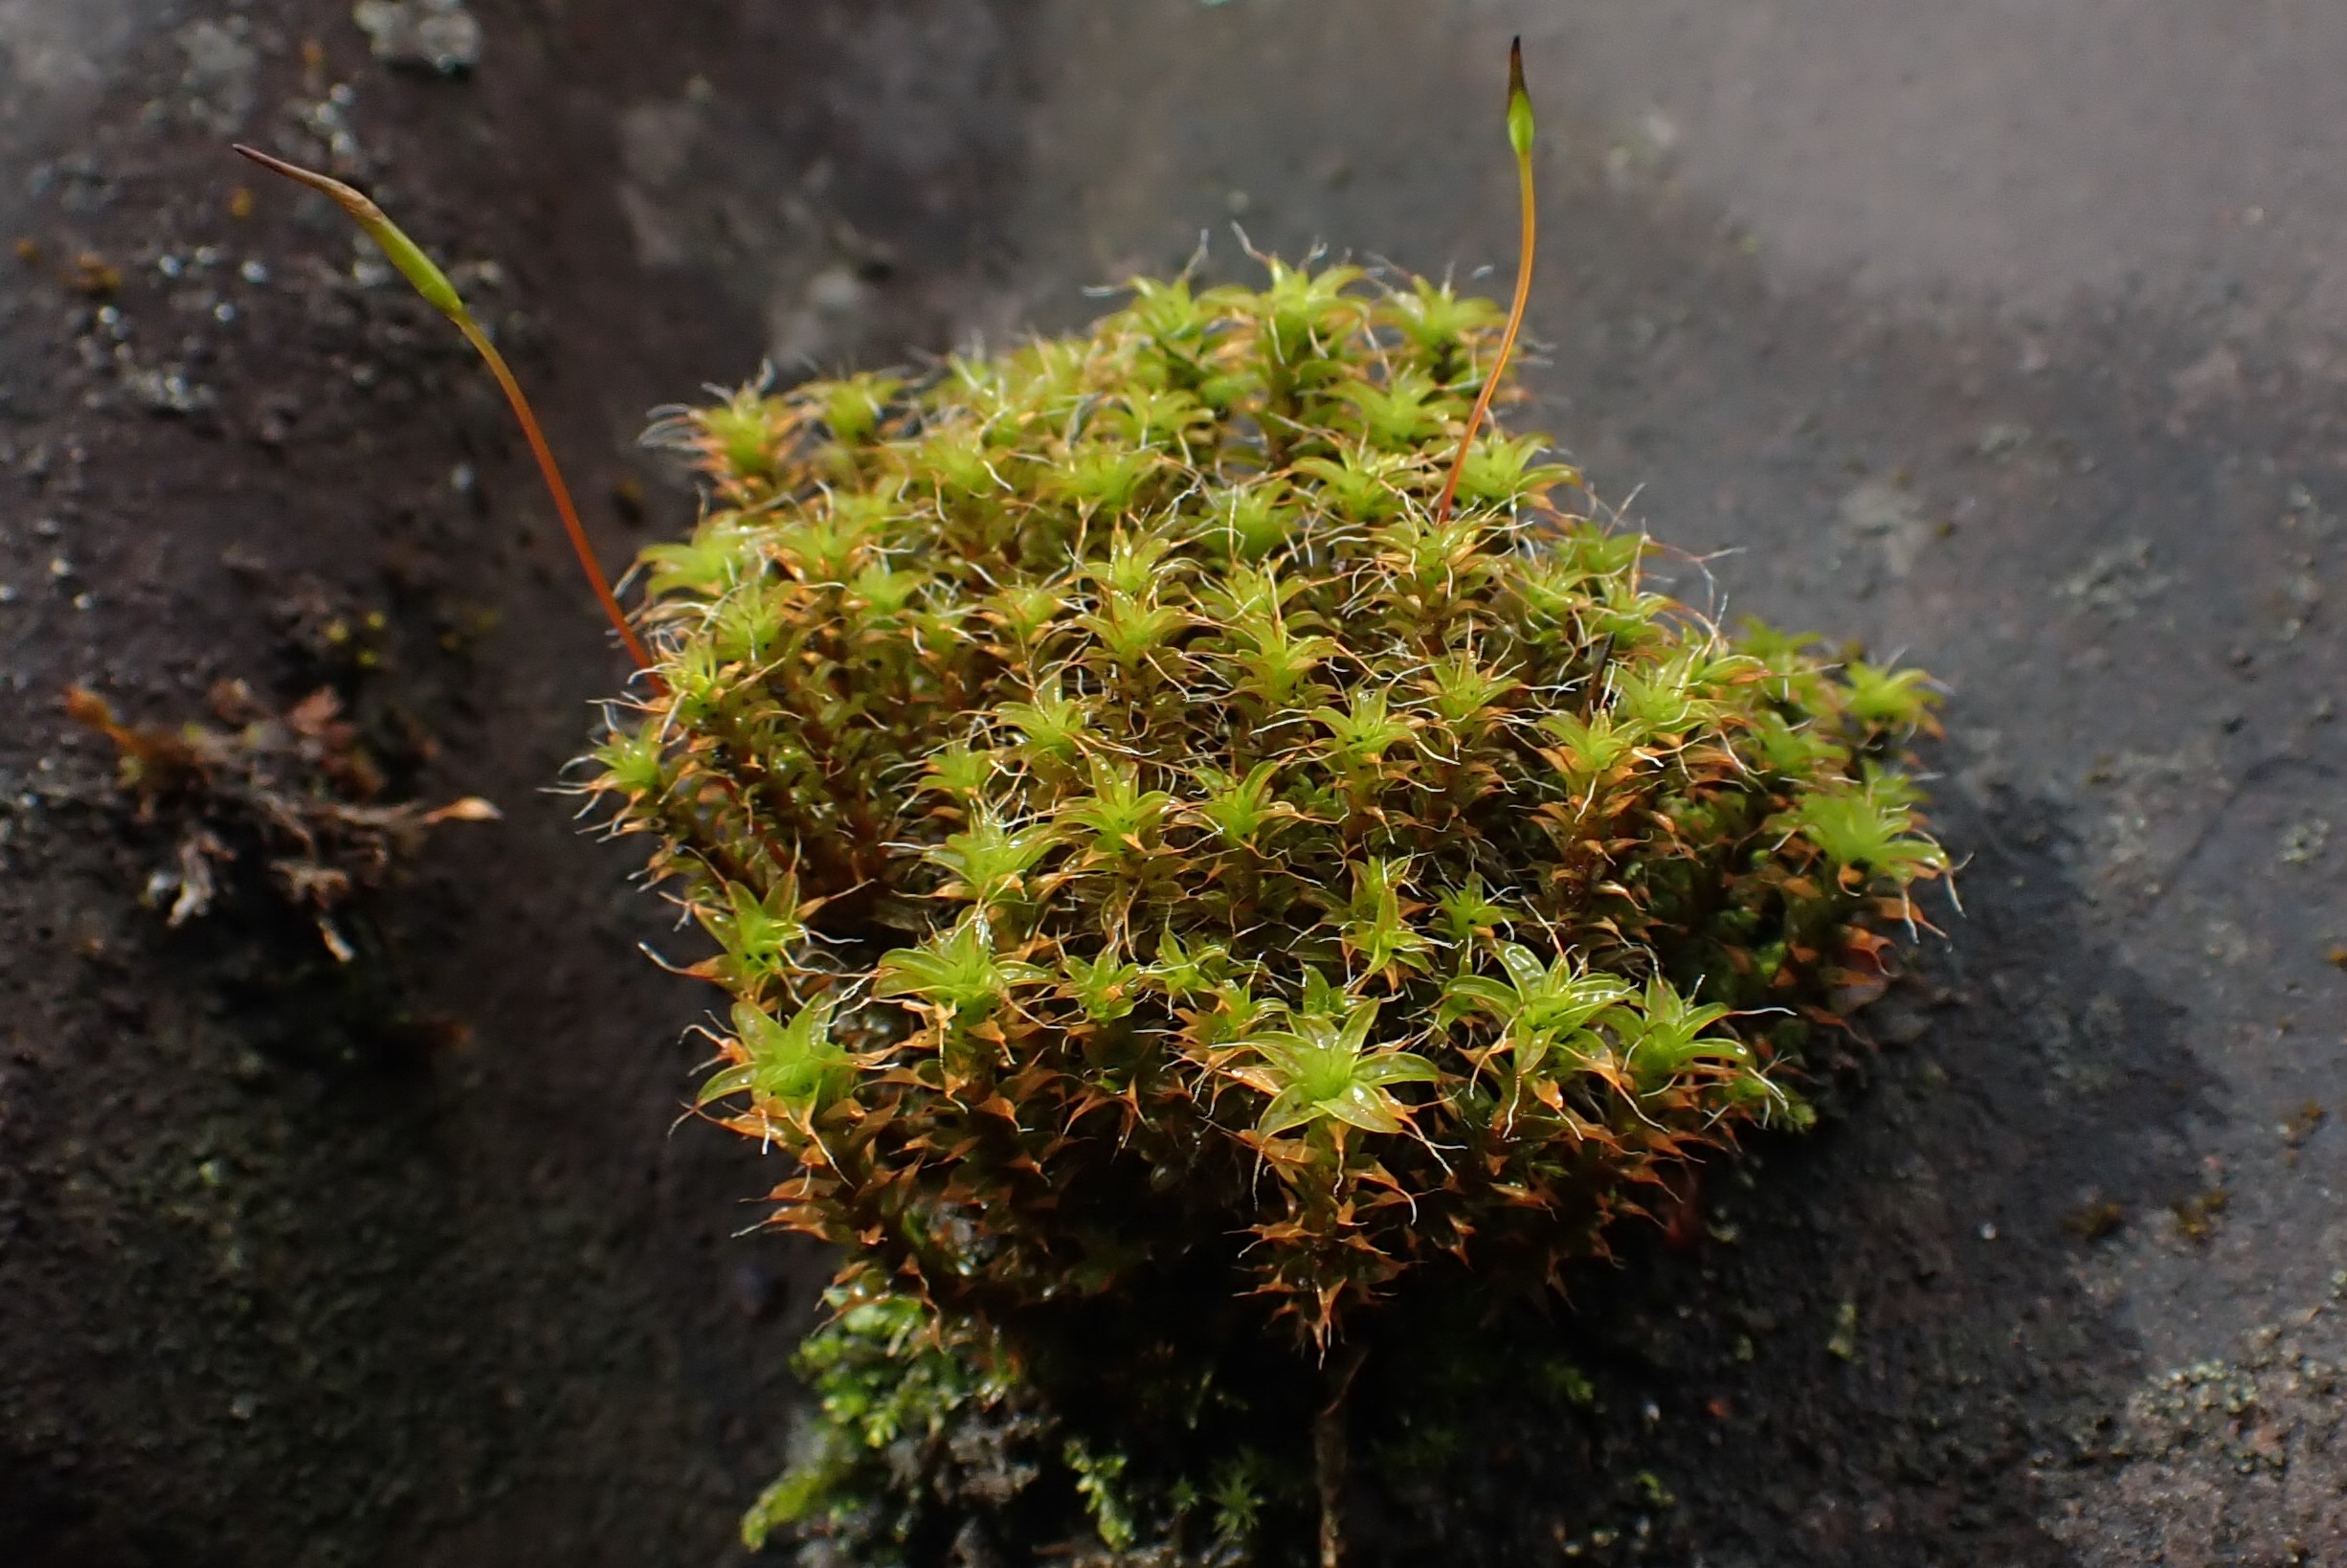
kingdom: Plantae
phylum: Bryophyta
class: Bryopsida
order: Pottiales
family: Pottiaceae
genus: Syntrichia
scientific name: Syntrichia ruralis
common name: Tag-hårstjerne
